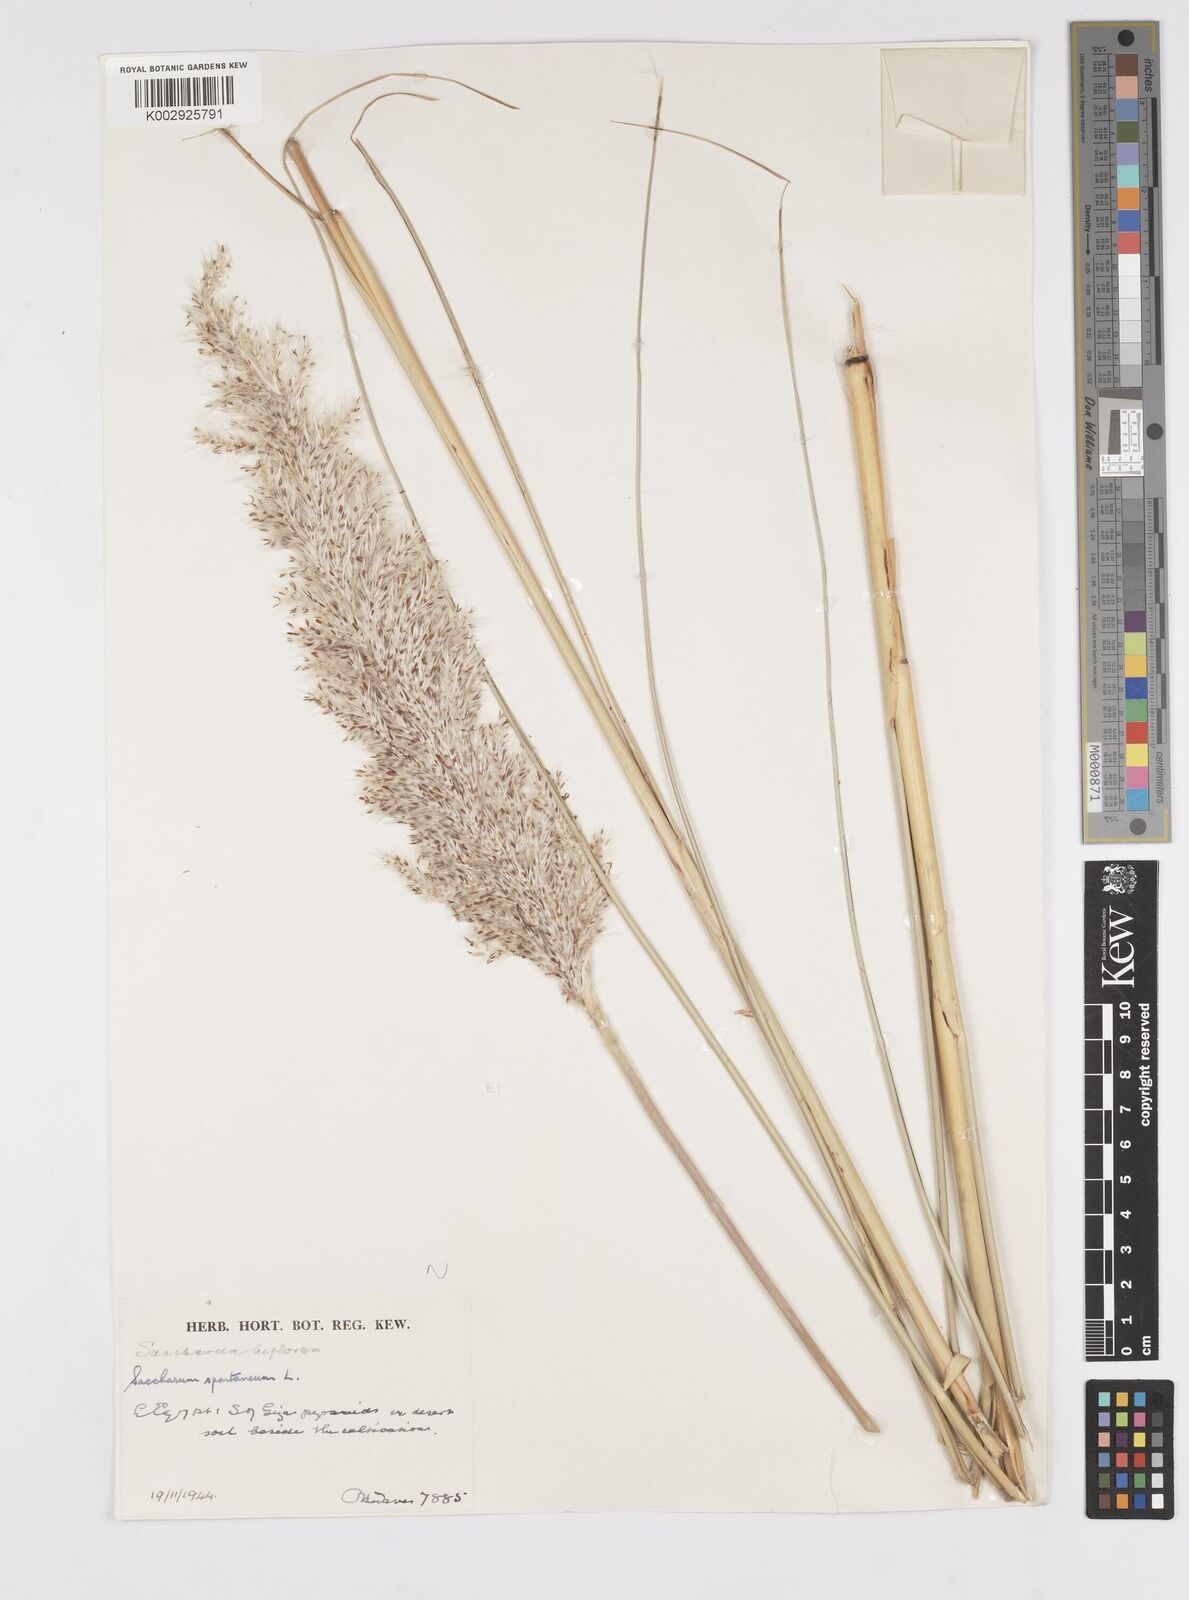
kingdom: Plantae
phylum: Tracheophyta
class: Liliopsida
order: Poales
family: Poaceae
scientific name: Poaceae
